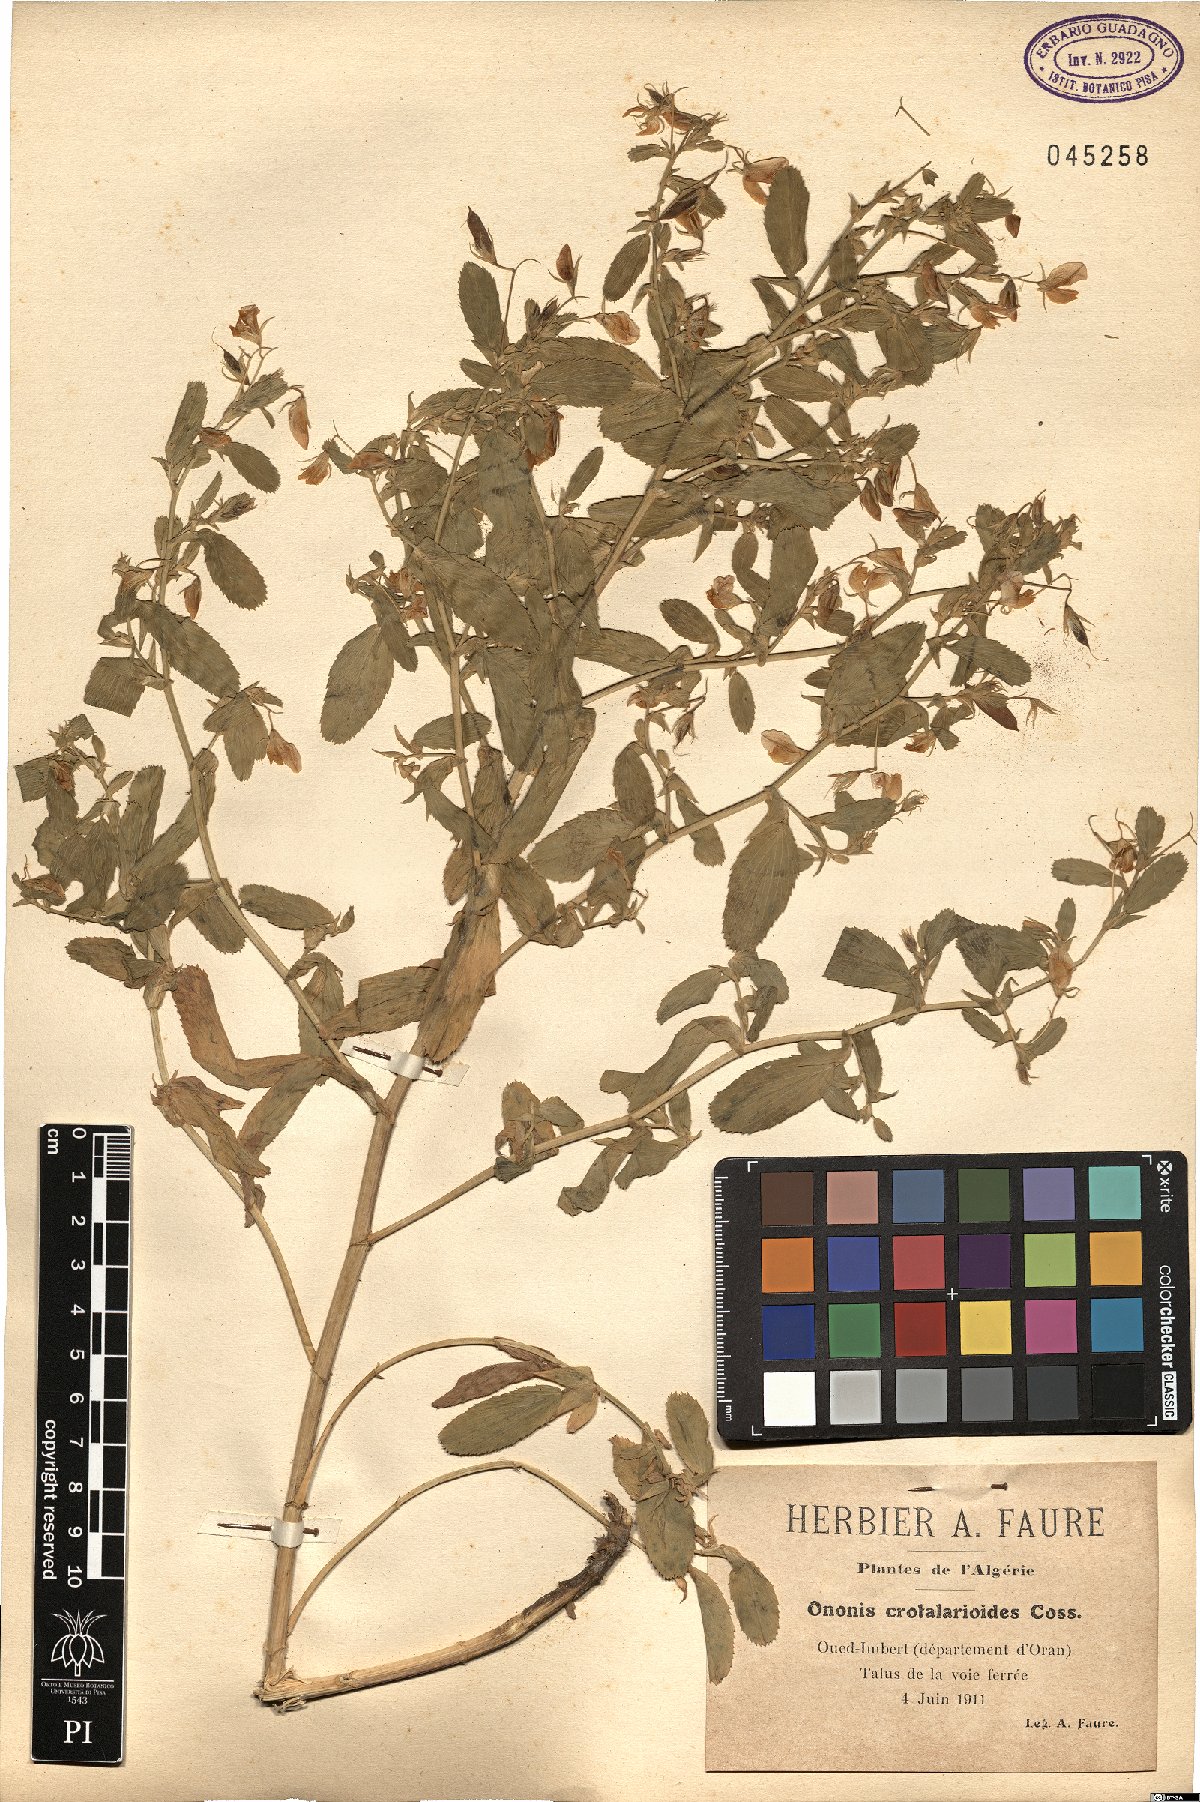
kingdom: Plantae
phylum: Tracheophyta
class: Magnoliopsida
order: Fabales
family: Fabaceae
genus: Ononis
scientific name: Ononis viscosa
